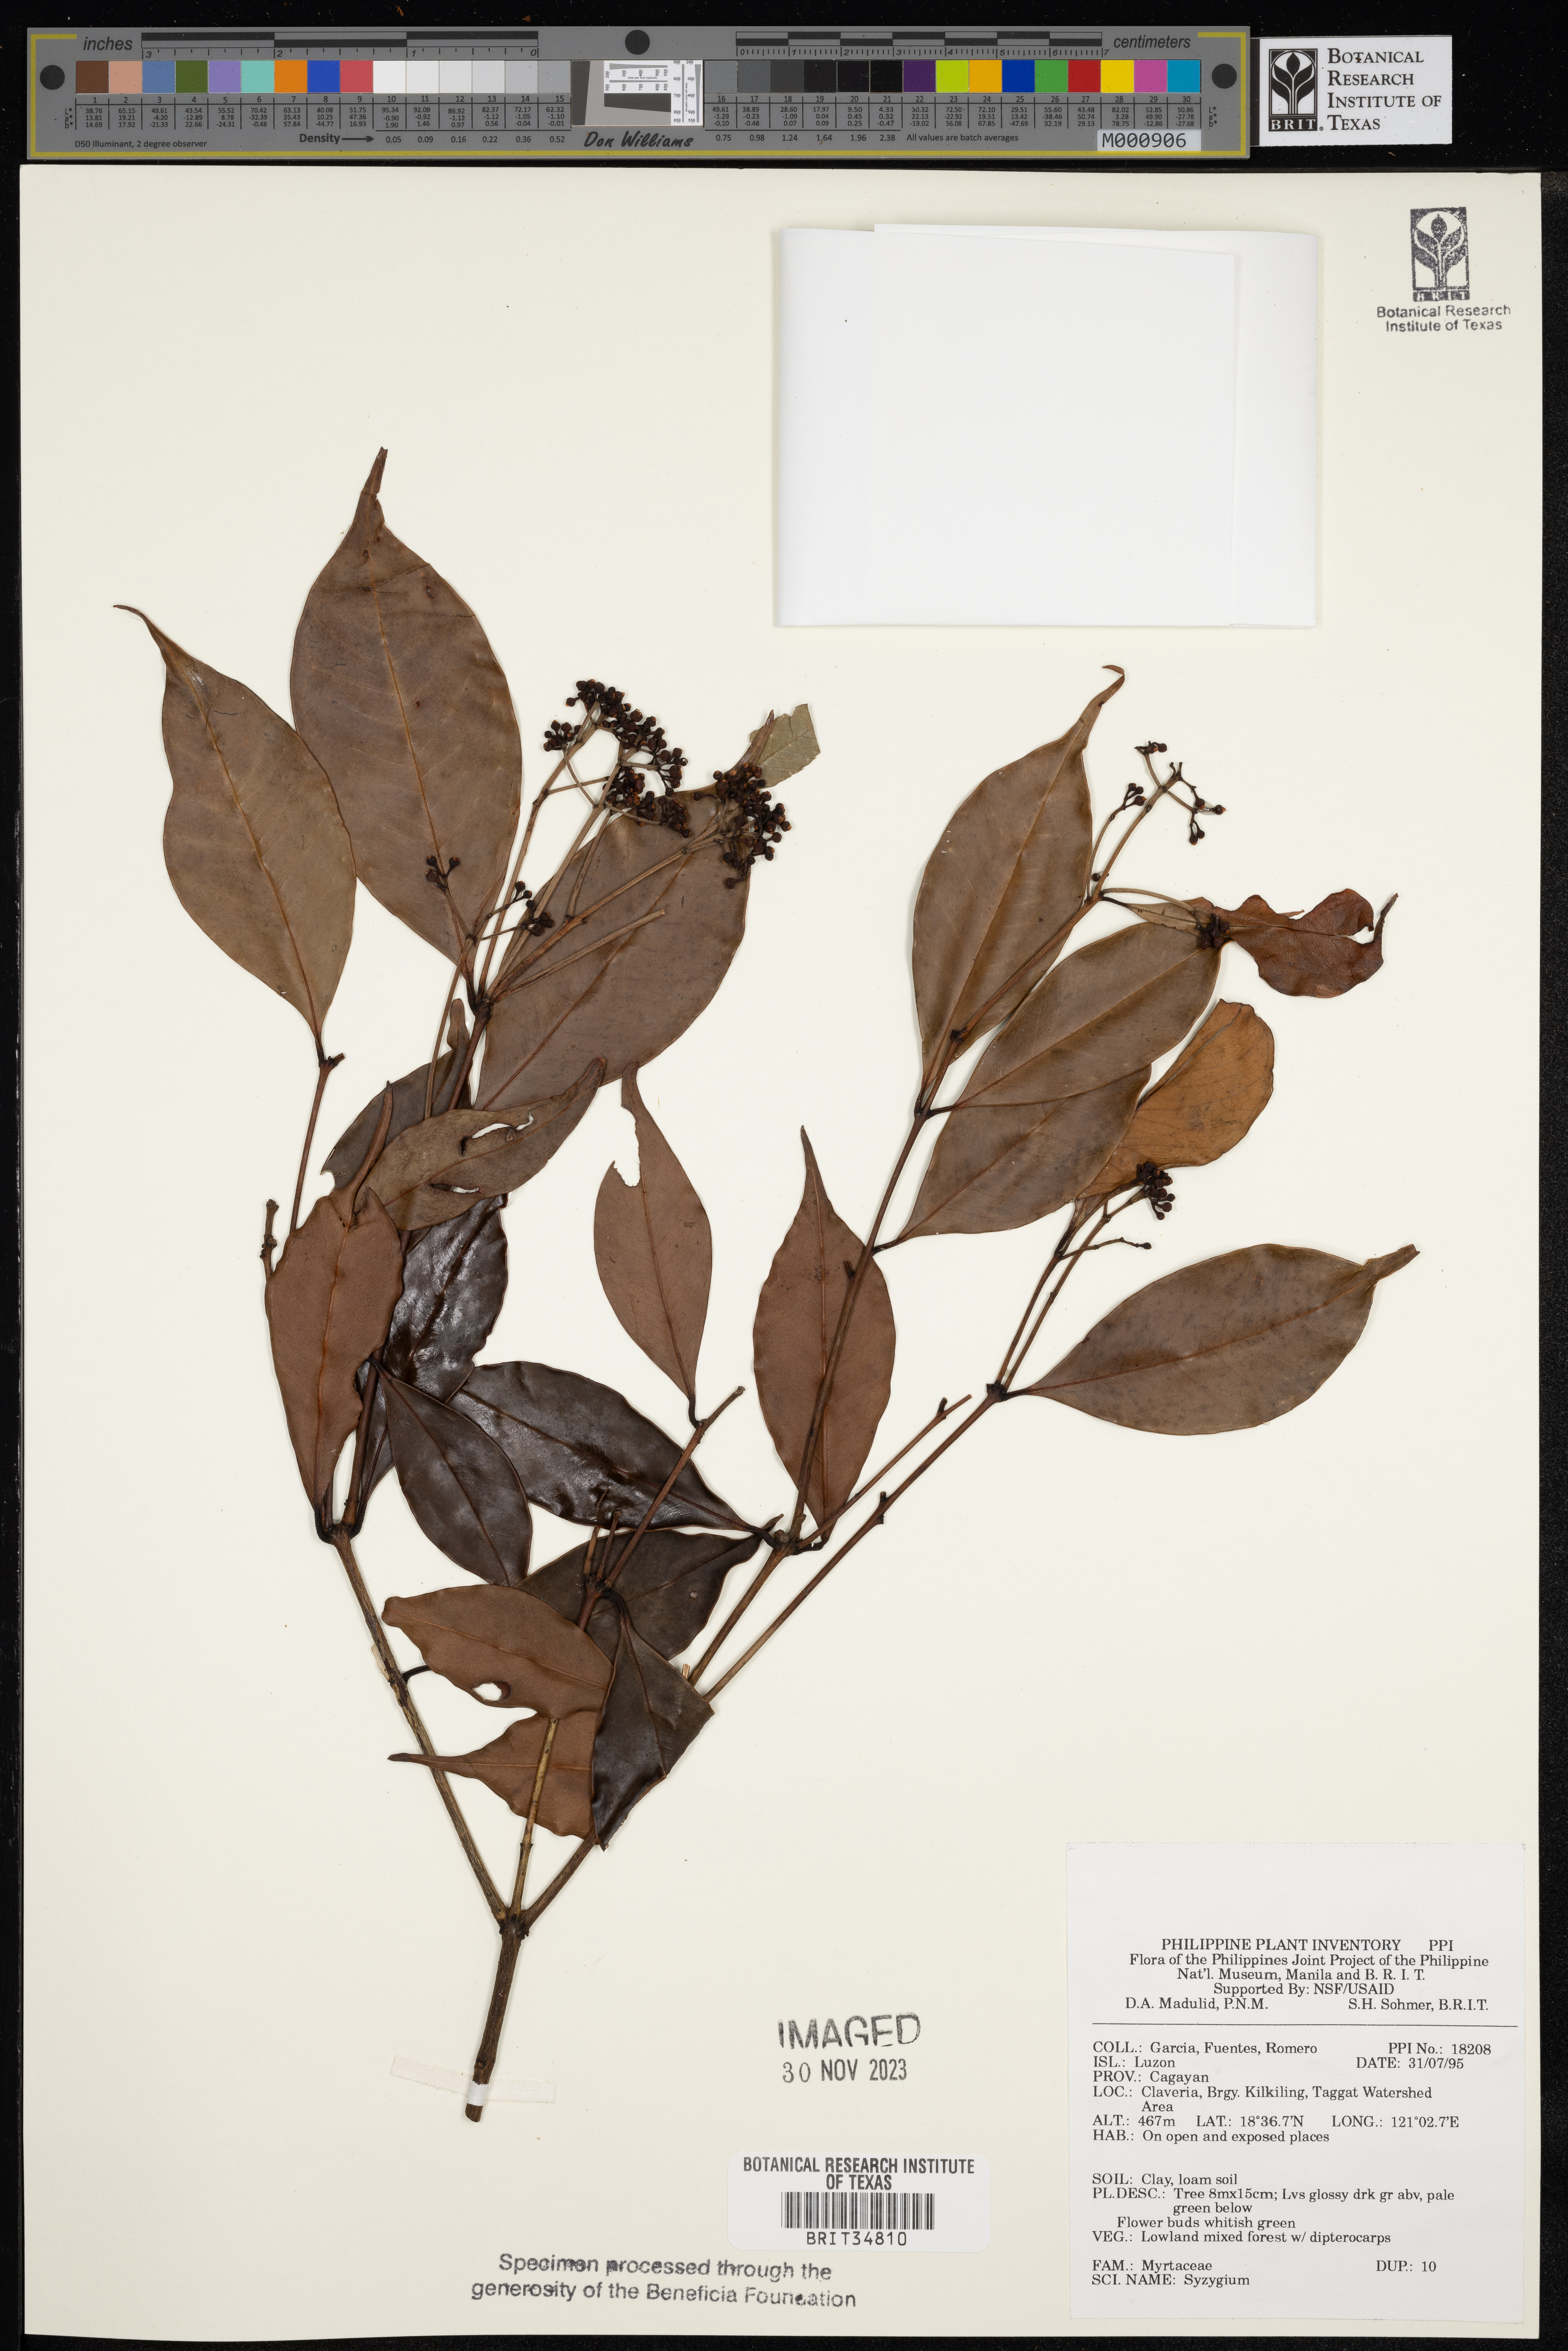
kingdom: Plantae
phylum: Tracheophyta
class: Magnoliopsida
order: Myrtales
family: Myrtaceae
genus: Syzygium
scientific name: Syzygium
